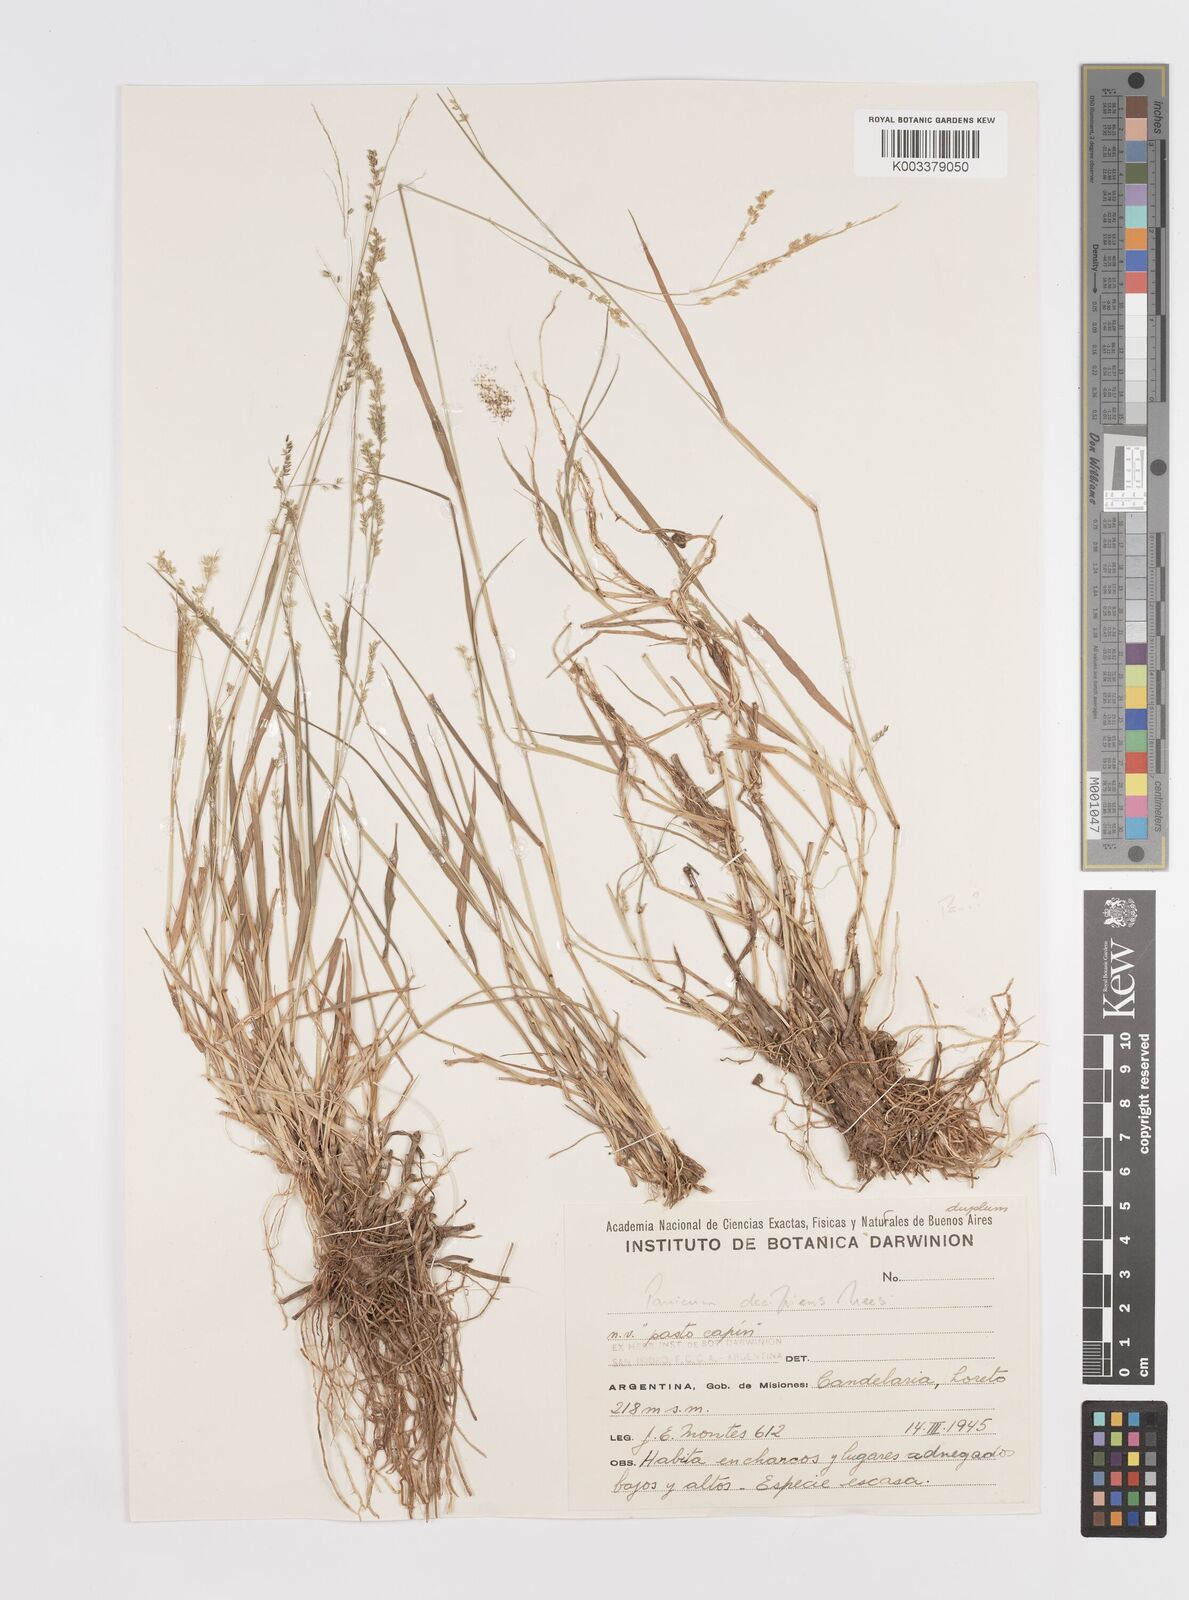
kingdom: Plantae
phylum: Tracheophyta
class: Liliopsida
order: Poales
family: Poaceae
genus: Steinchisma
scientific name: Steinchisma hians
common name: Gaping panic grass
